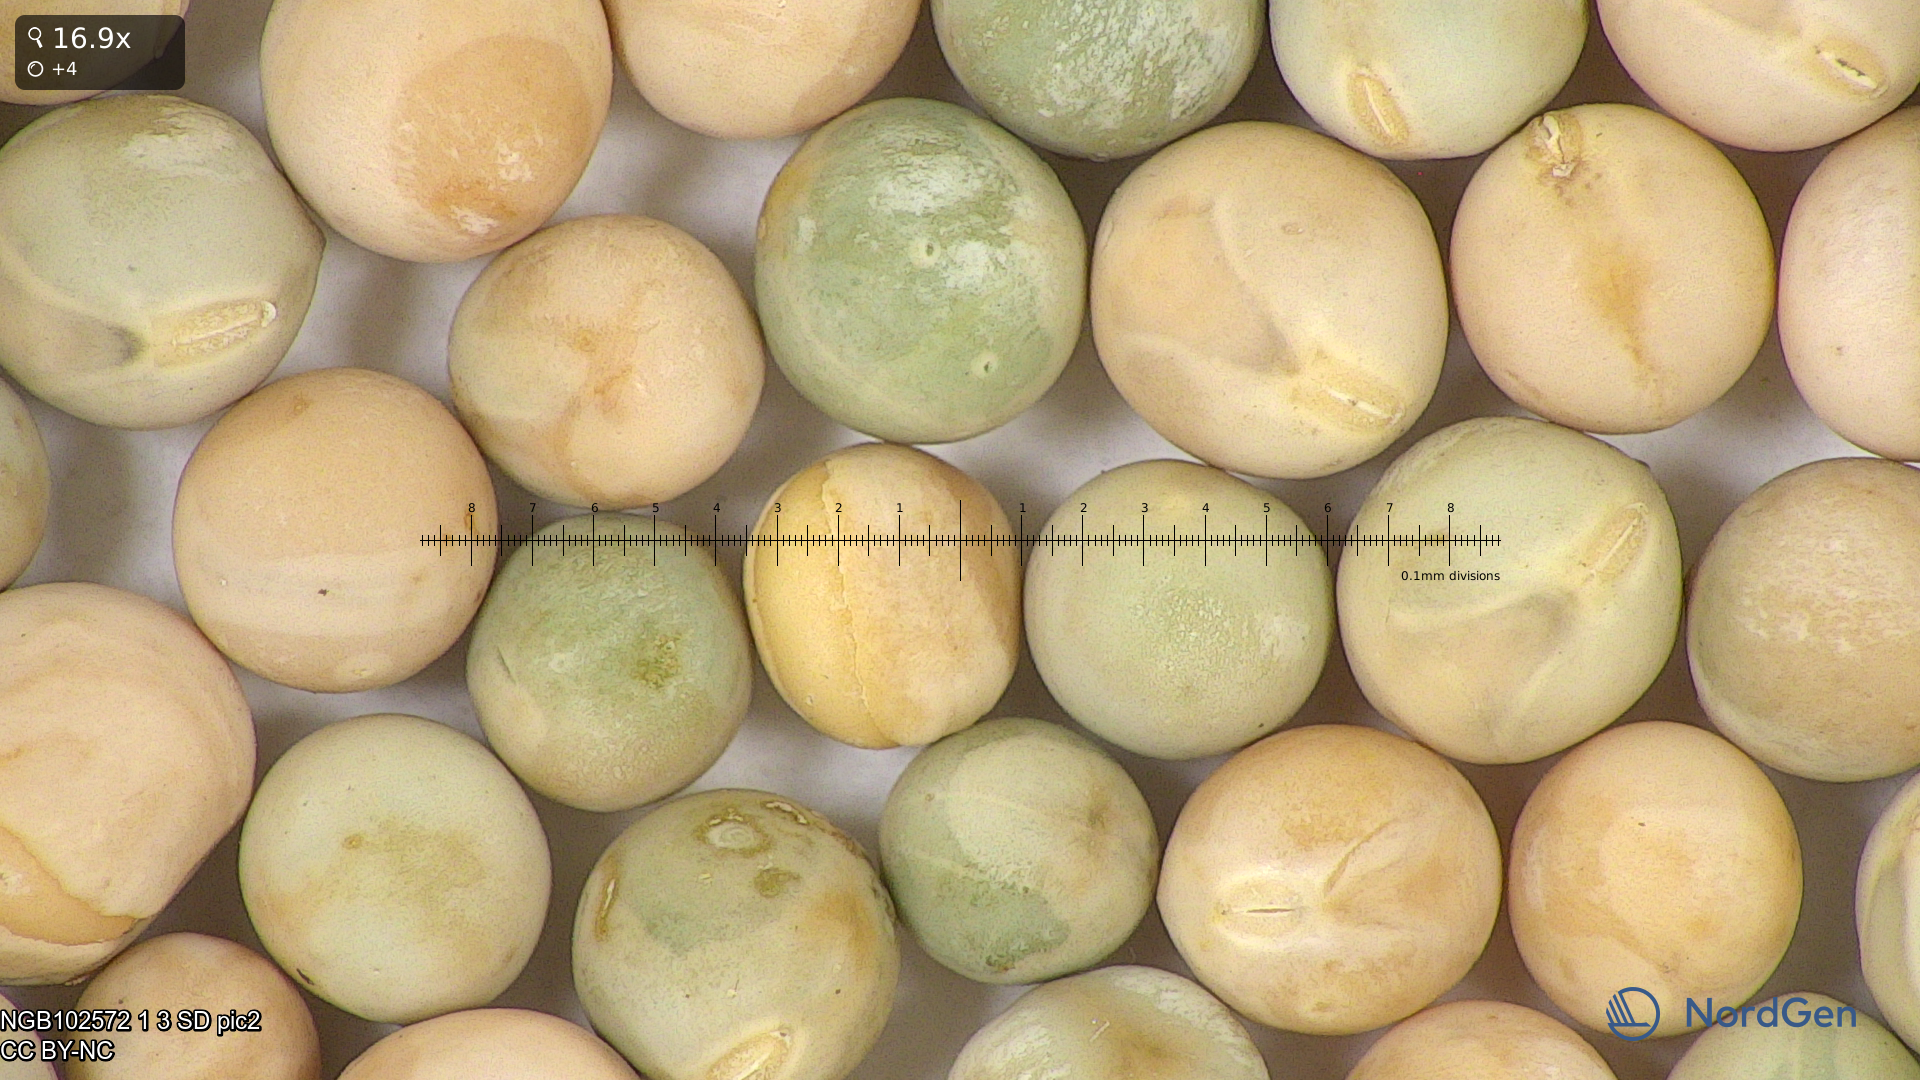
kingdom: Plantae
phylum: Tracheophyta
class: Magnoliopsida
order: Fabales
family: Fabaceae
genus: Lathyrus
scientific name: Lathyrus oleraceus
